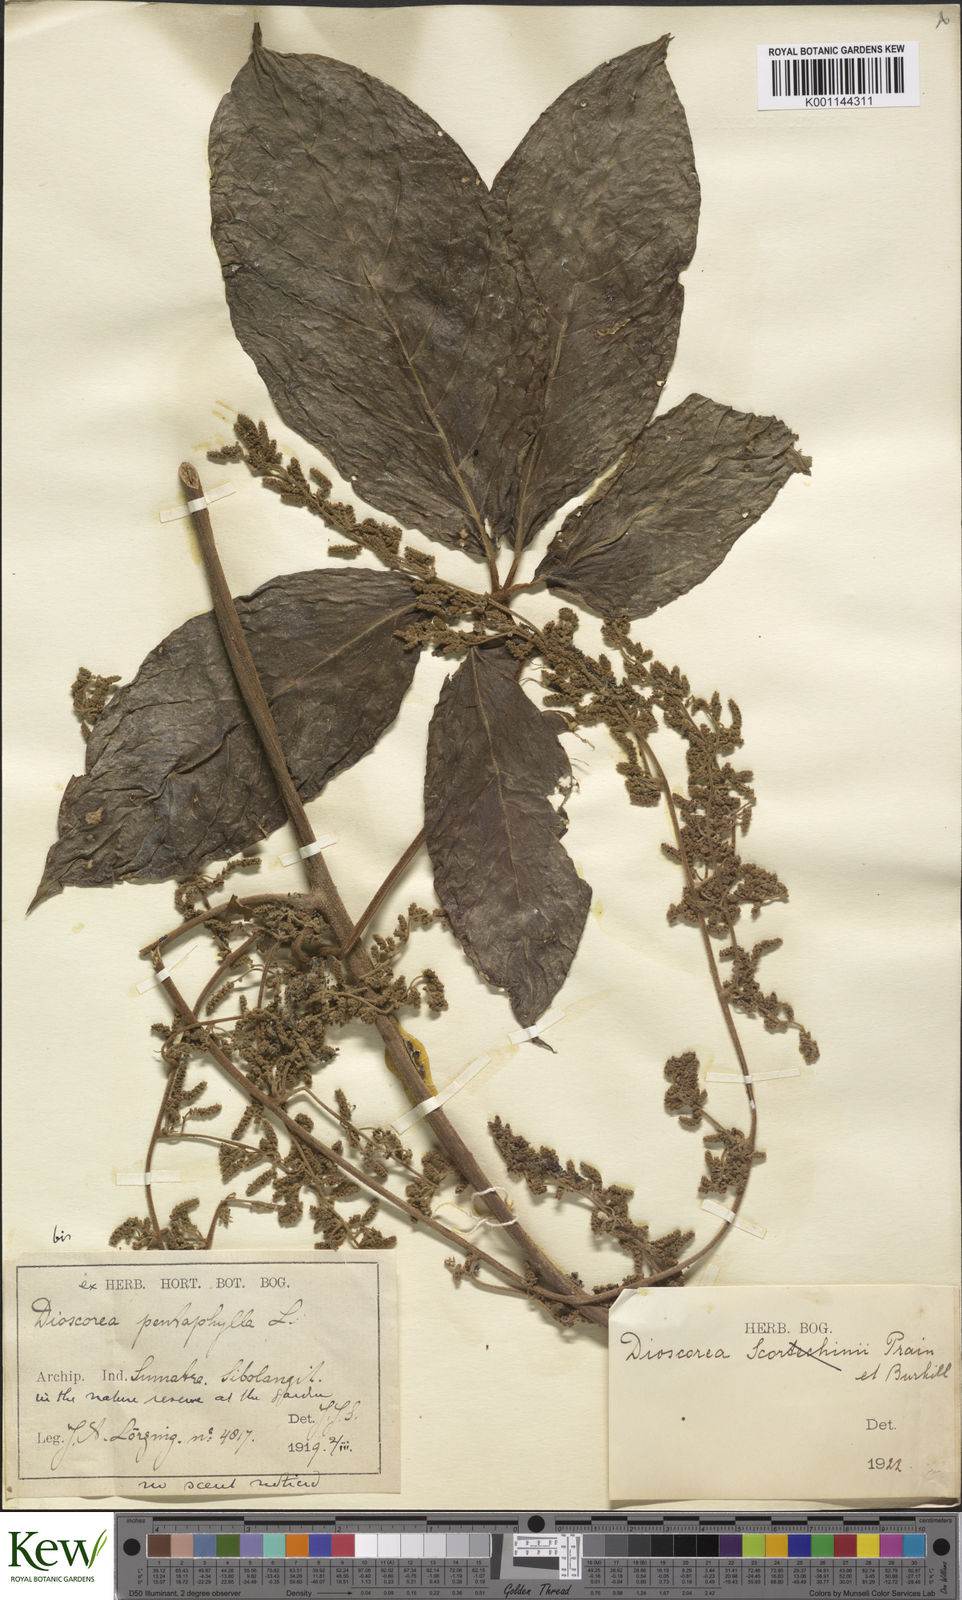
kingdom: Plantae
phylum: Tracheophyta
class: Liliopsida
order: Dioscoreales
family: Dioscoreaceae
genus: Dioscorea
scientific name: Dioscorea cumingii
